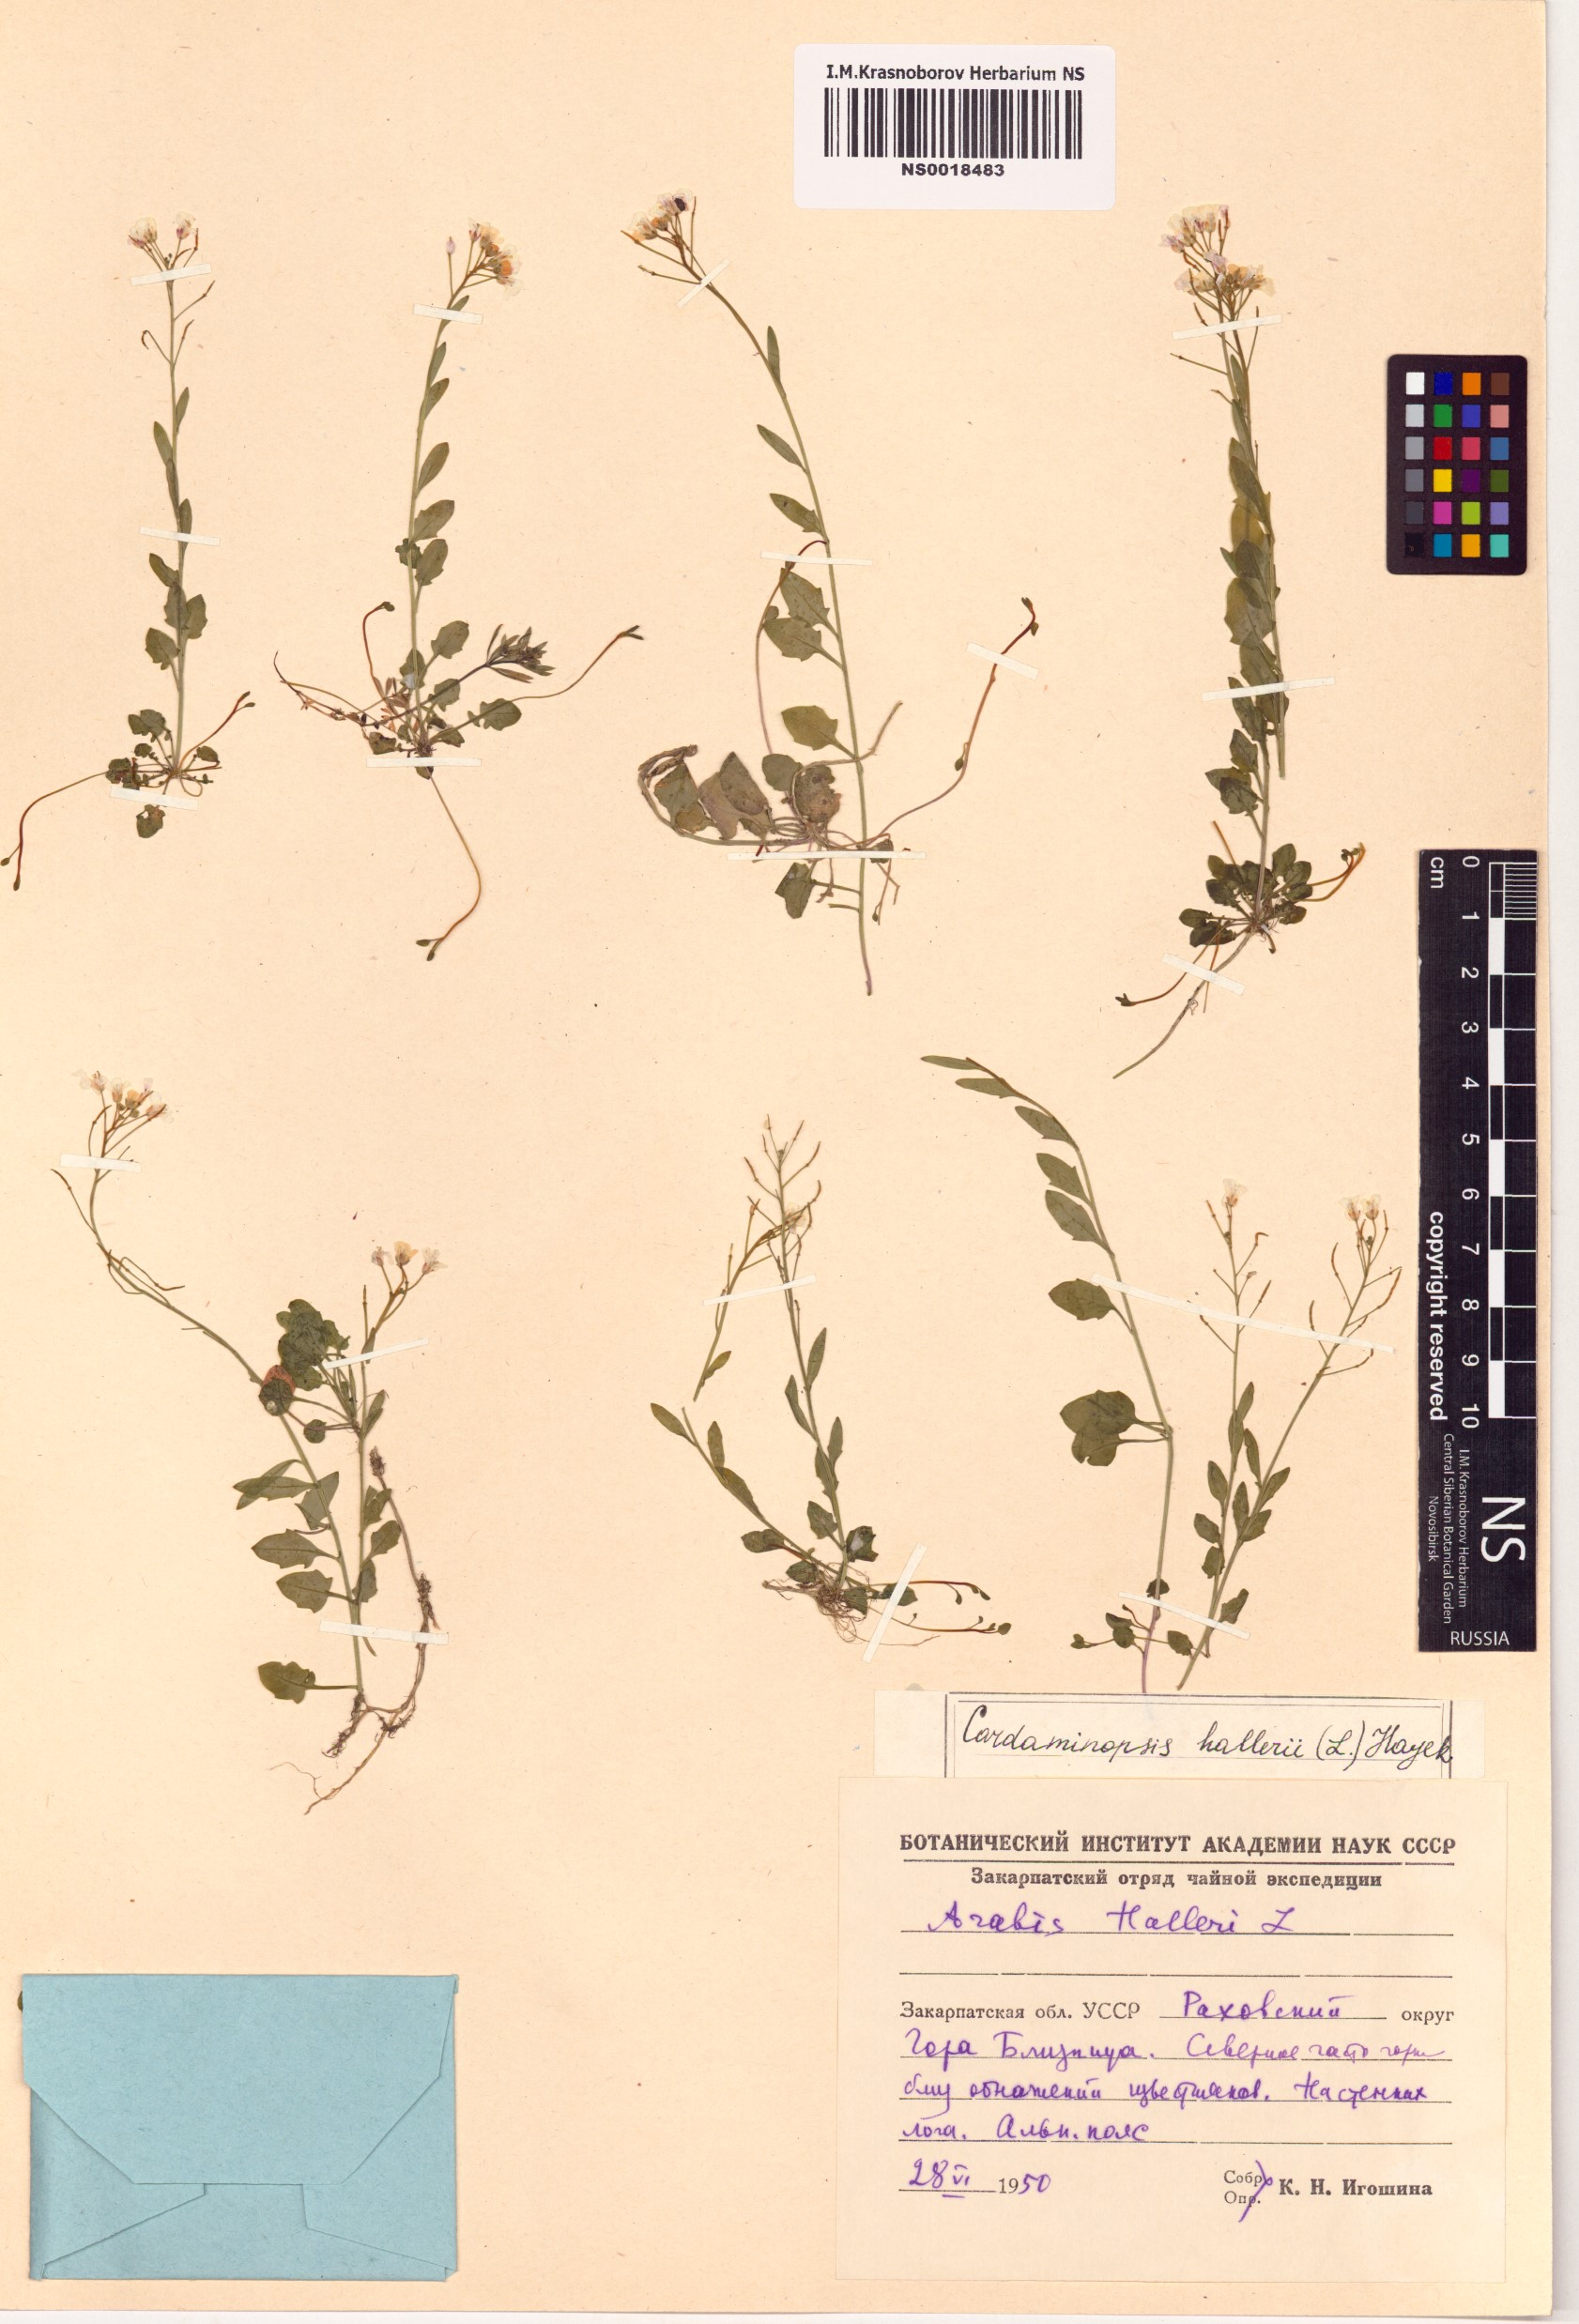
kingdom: Plantae
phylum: Tracheophyta
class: Magnoliopsida
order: Brassicales
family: Brassicaceae
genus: Arabidopsis
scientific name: Arabidopsis halleri
